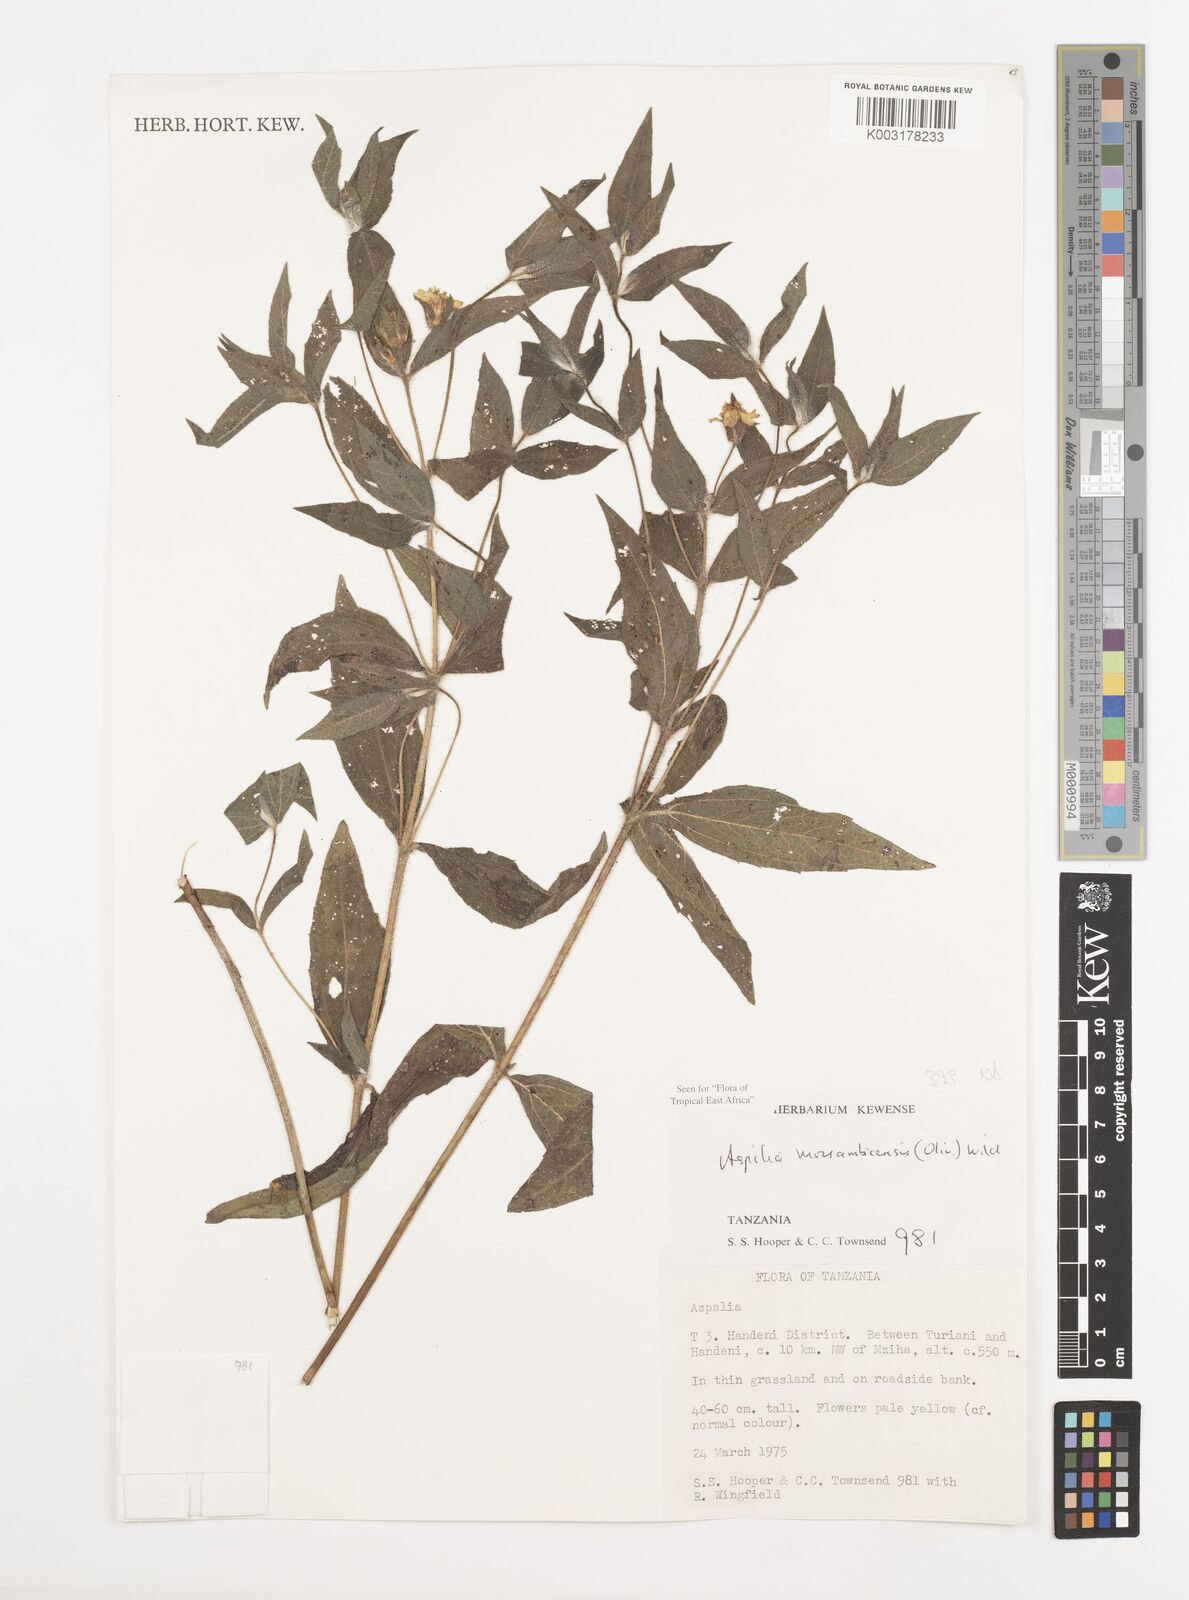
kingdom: Plantae
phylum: Tracheophyta
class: Magnoliopsida
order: Asterales
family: Asteraceae
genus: Aspilia
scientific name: Aspilia mossambicensis
